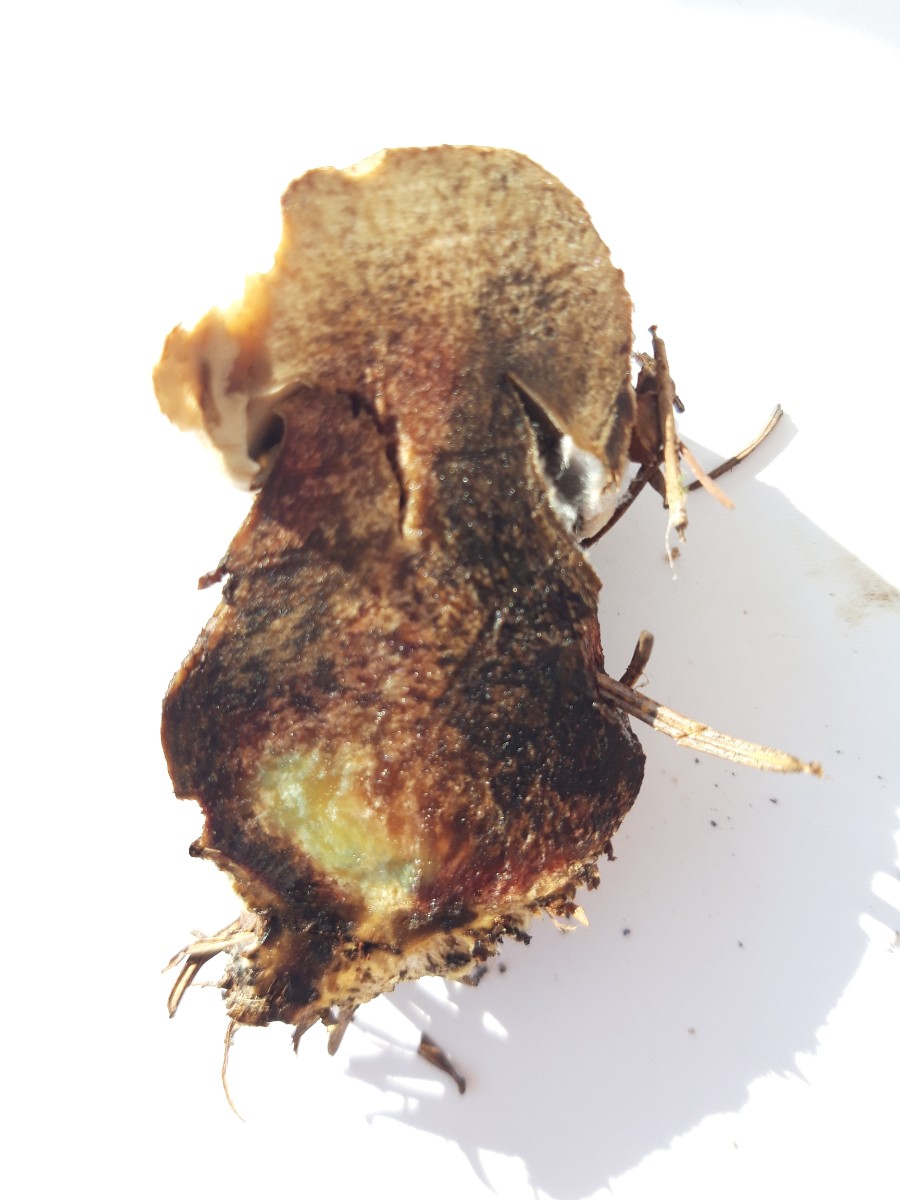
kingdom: Fungi
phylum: Basidiomycota
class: Agaricomycetes
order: Boletales
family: Boletaceae
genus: Caloboletus
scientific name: Caloboletus calopus
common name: skønfodet rørhat
